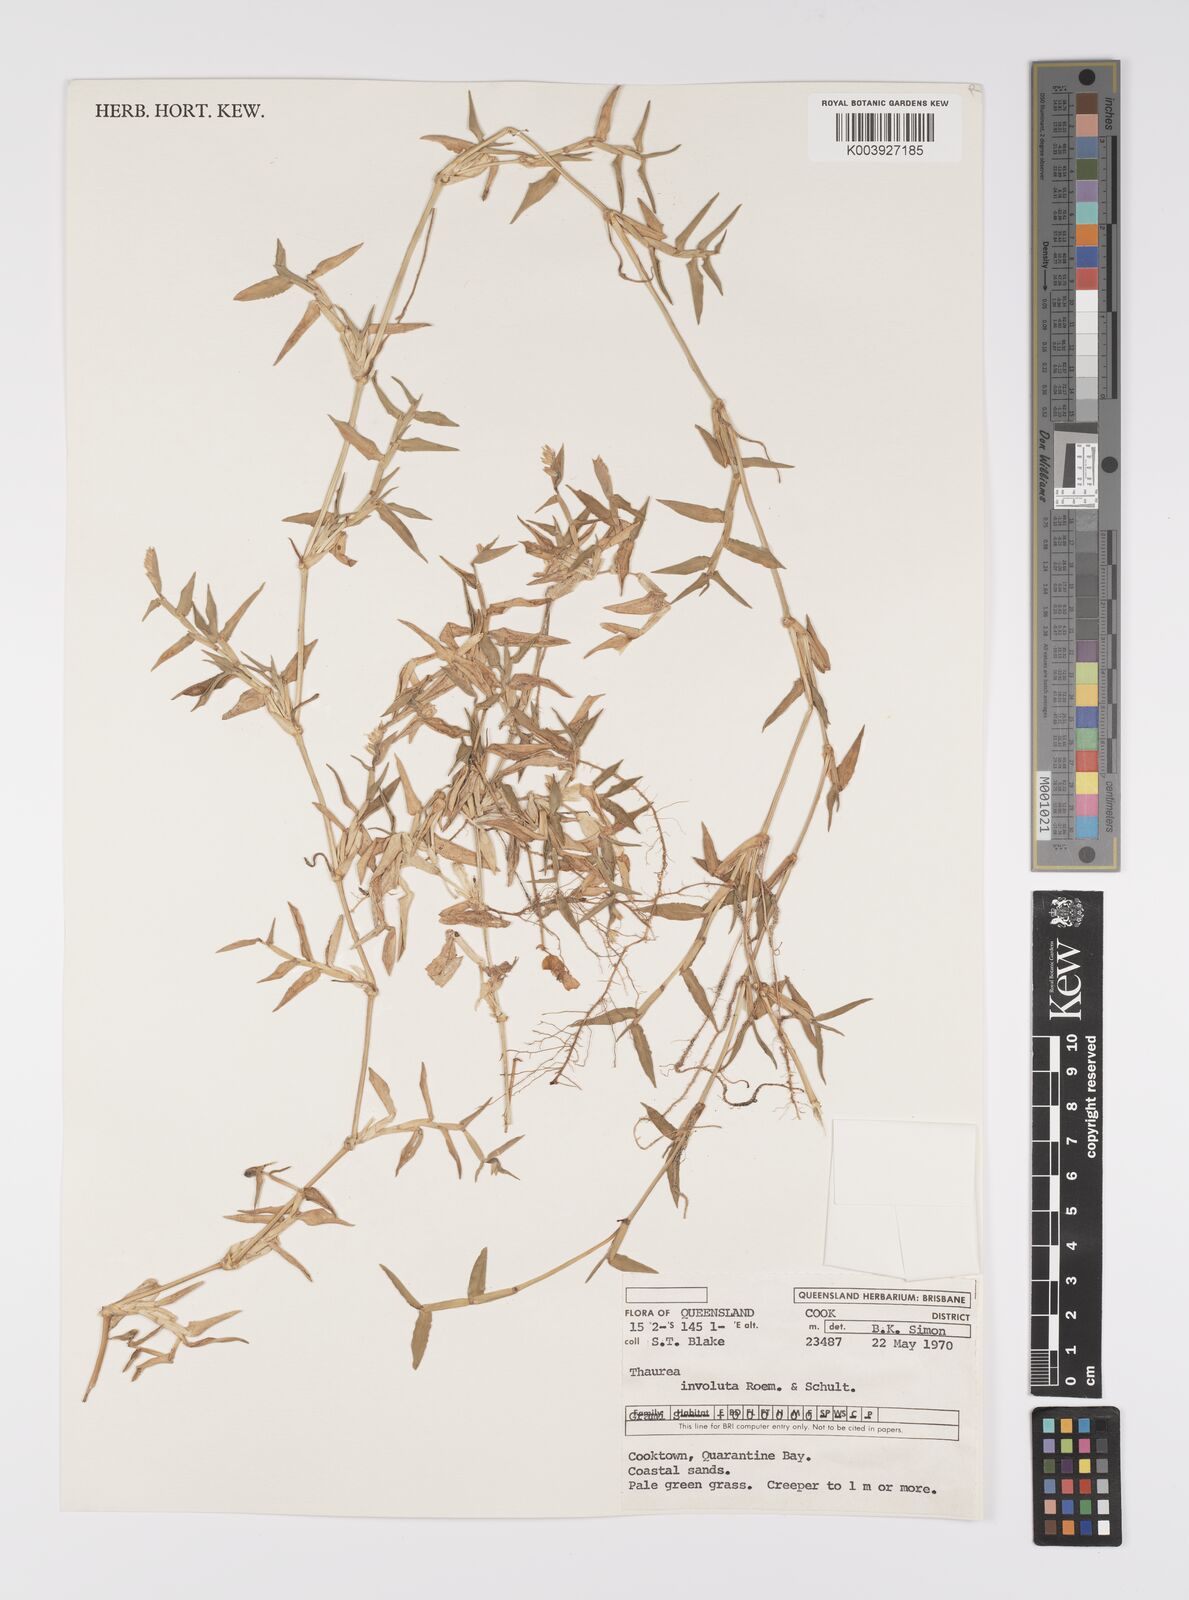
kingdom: Plantae
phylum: Tracheophyta
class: Liliopsida
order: Poales
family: Poaceae
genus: Thuarea
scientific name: Thuarea involuta
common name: Tropical beach grass
